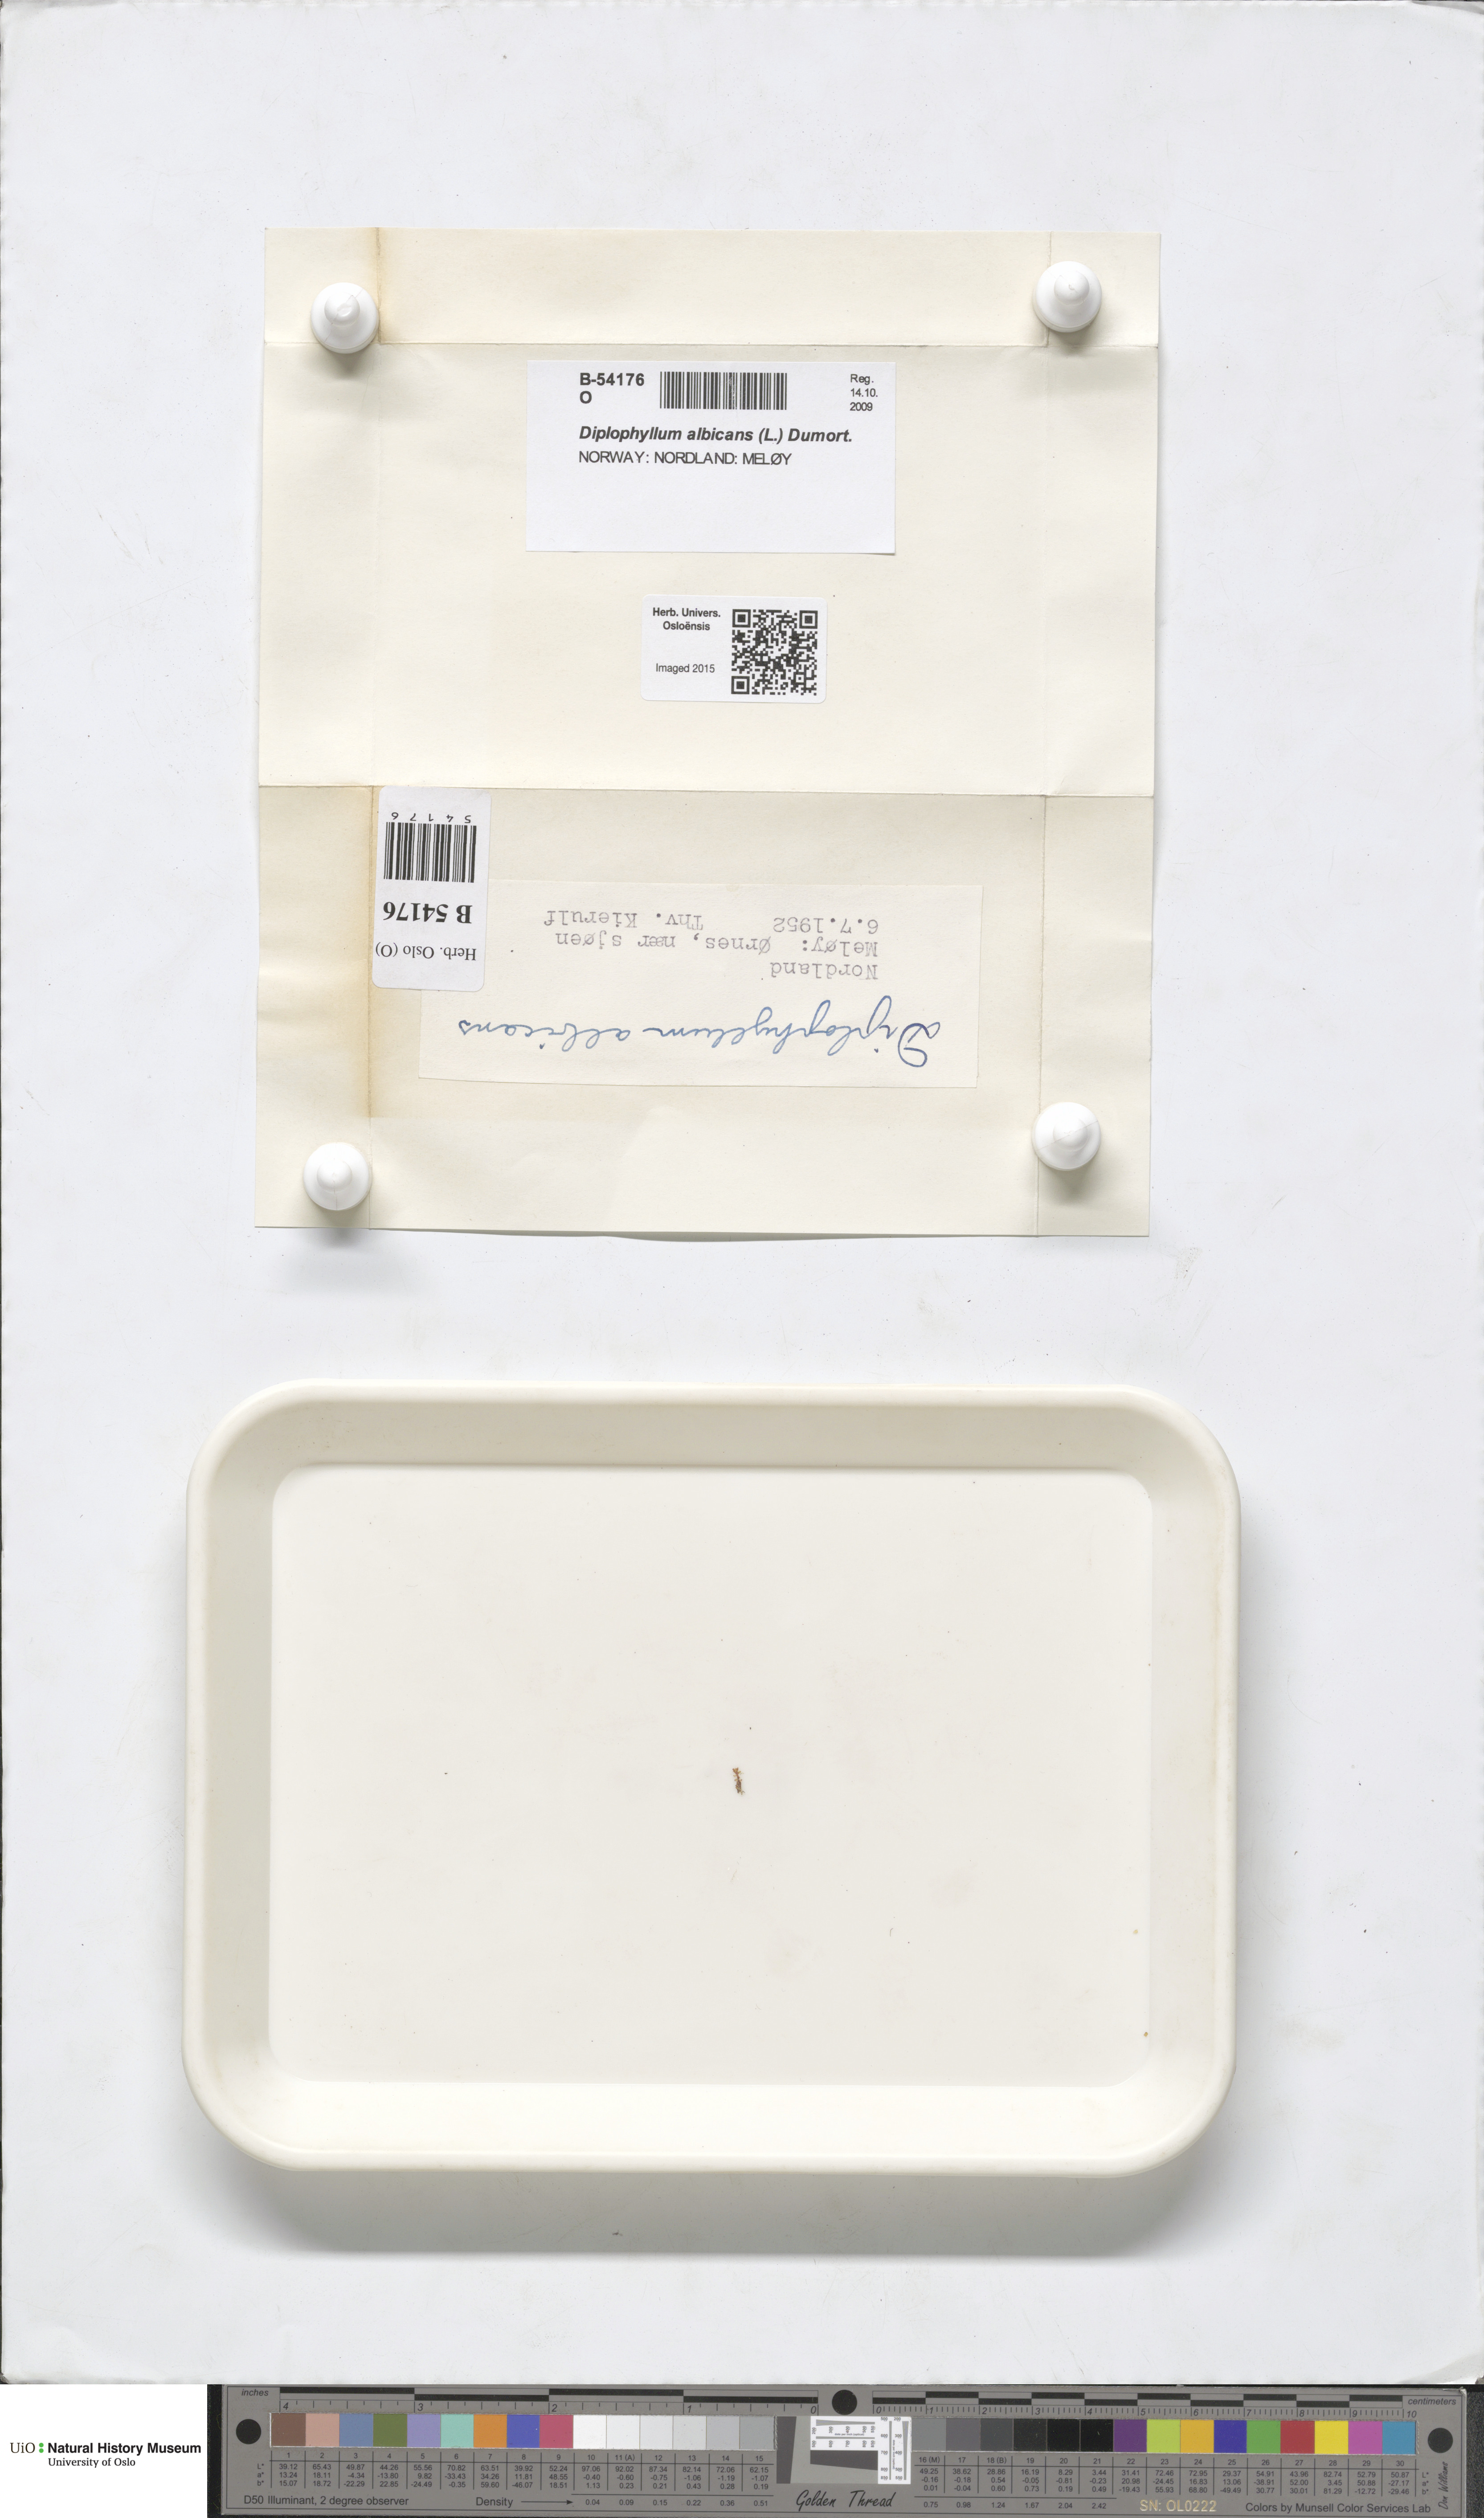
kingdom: Plantae
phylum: Marchantiophyta
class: Jungermanniopsida
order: Jungermanniales
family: Scapaniaceae
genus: Diplophyllum
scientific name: Diplophyllum albicans
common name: White earwort
